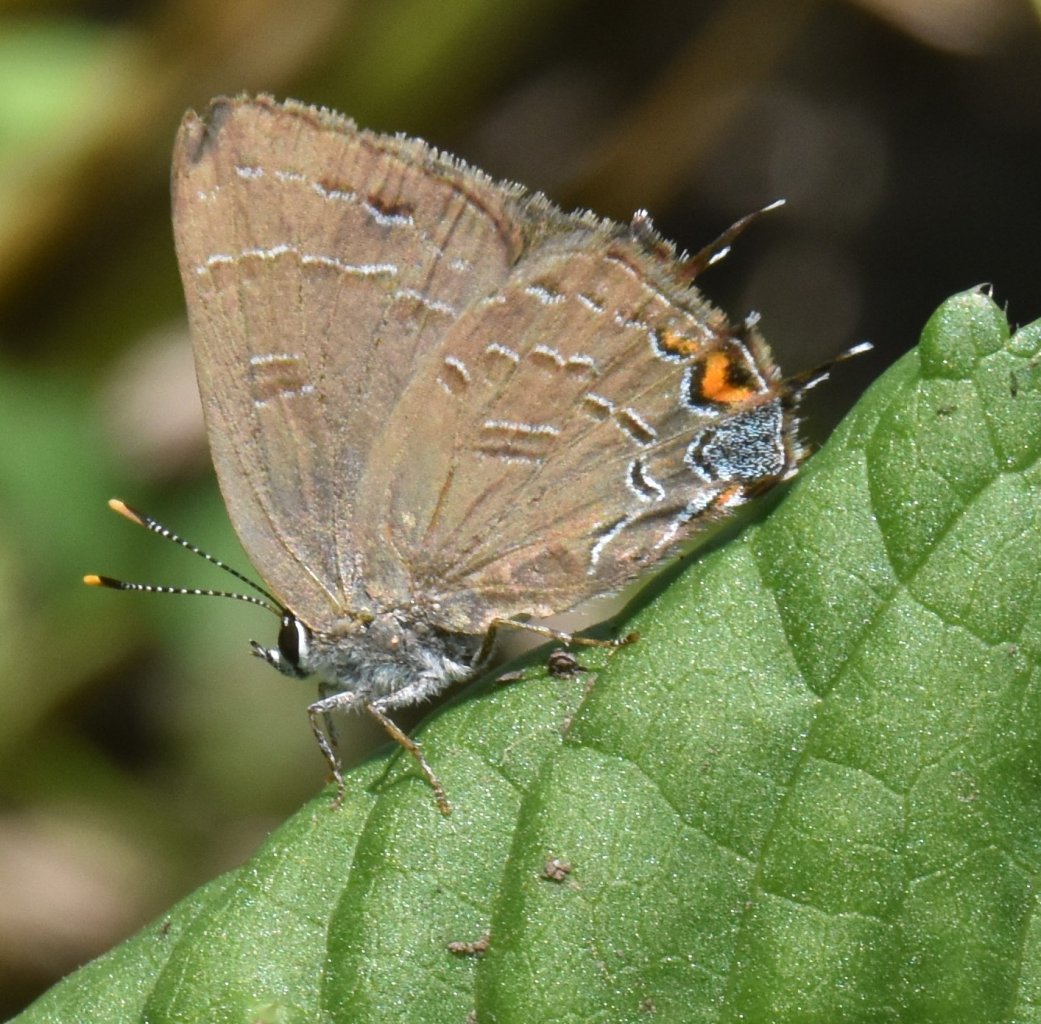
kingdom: Animalia
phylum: Arthropoda
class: Insecta
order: Lepidoptera
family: Lycaenidae
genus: Satyrium
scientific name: Satyrium calanus
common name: Banded Hairstreak
